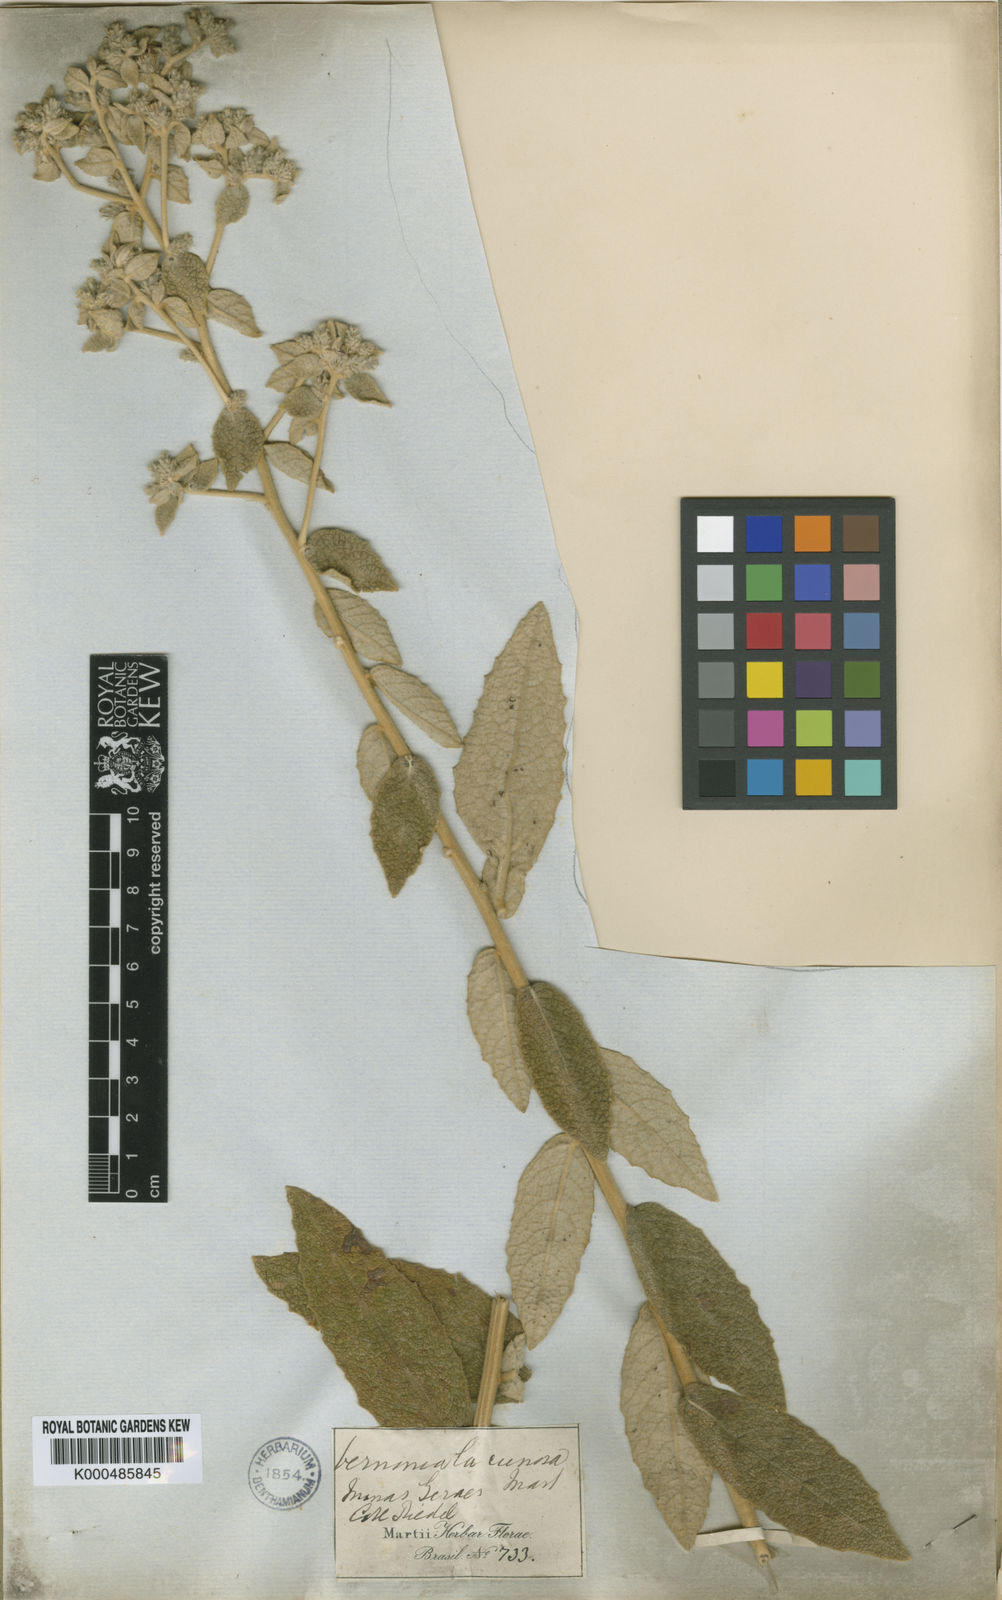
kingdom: Plantae
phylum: Tracheophyta
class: Magnoliopsida
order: Asterales
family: Asteraceae
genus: Lessingianthus
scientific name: Lessingianthus lacunosus
